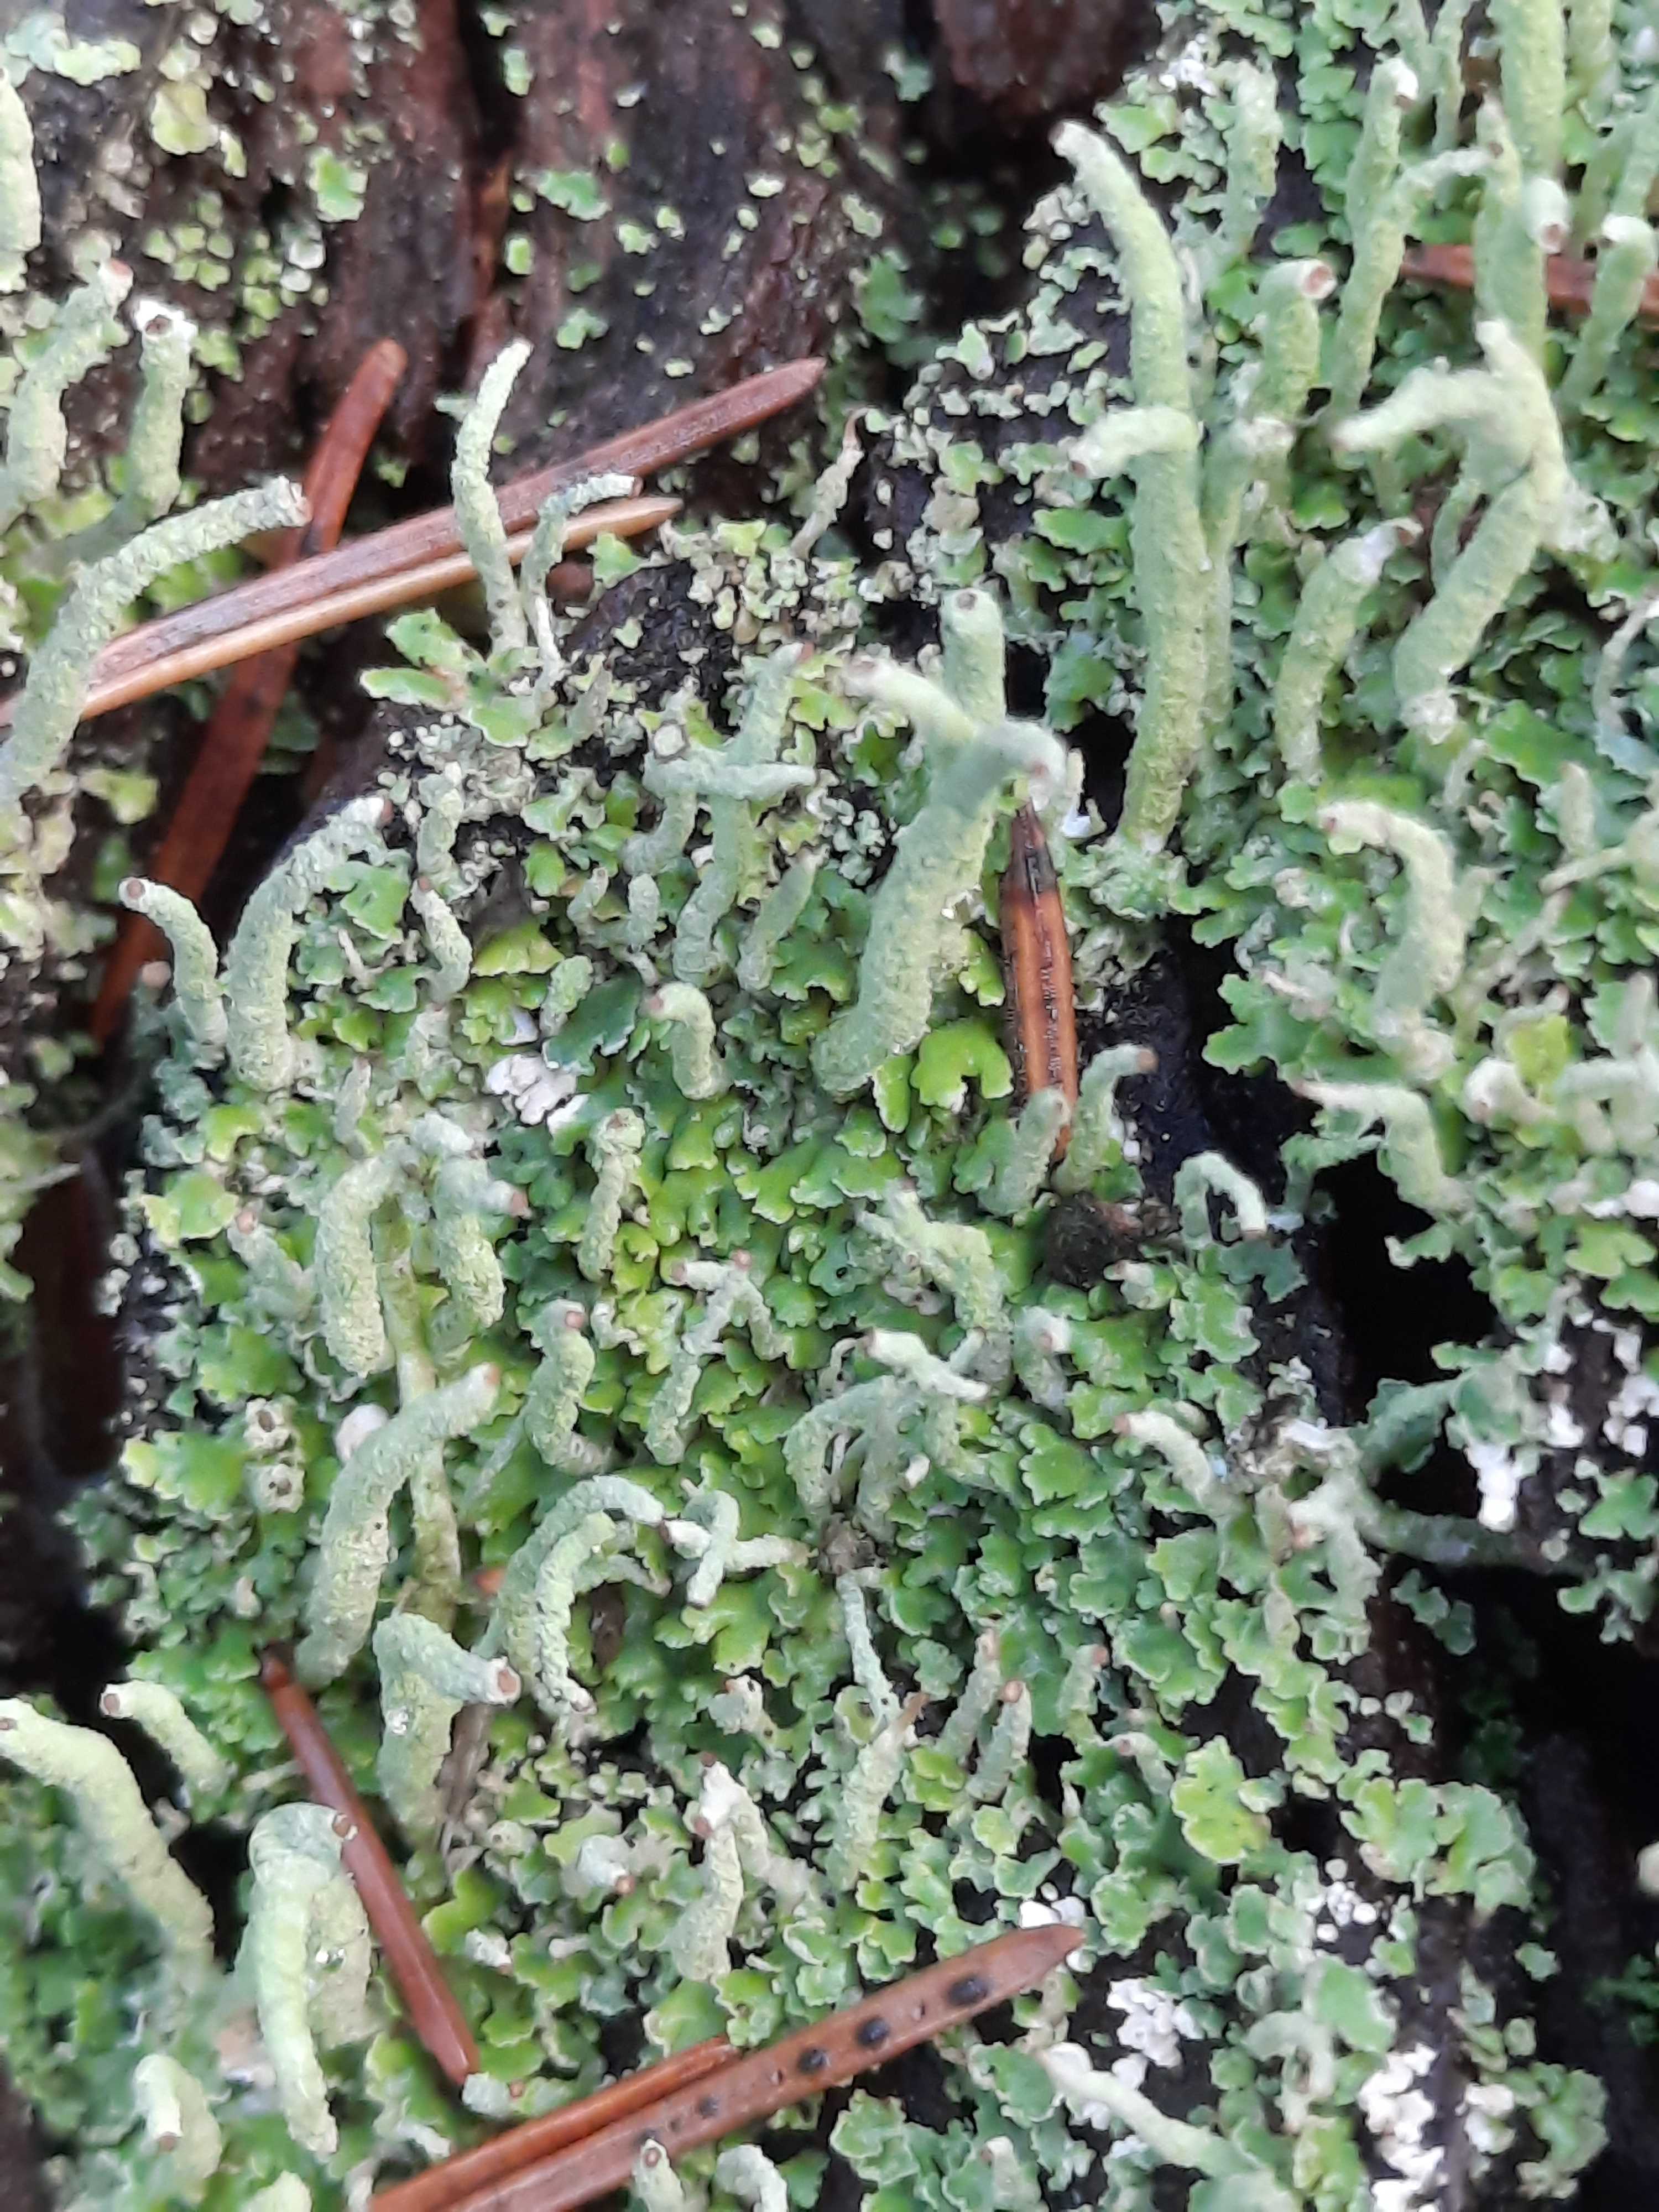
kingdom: Fungi
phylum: Ascomycota
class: Lecanoromycetes
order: Lecanorales
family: Cladoniaceae
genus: Cladonia
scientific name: Cladonia ochrochlora
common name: stød-bægerlav
